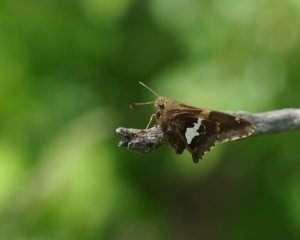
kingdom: Animalia
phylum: Arthropoda
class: Insecta
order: Lepidoptera
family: Hesperiidae
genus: Epargyreus
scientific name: Epargyreus clarus
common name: Silver-spotted Skipper
